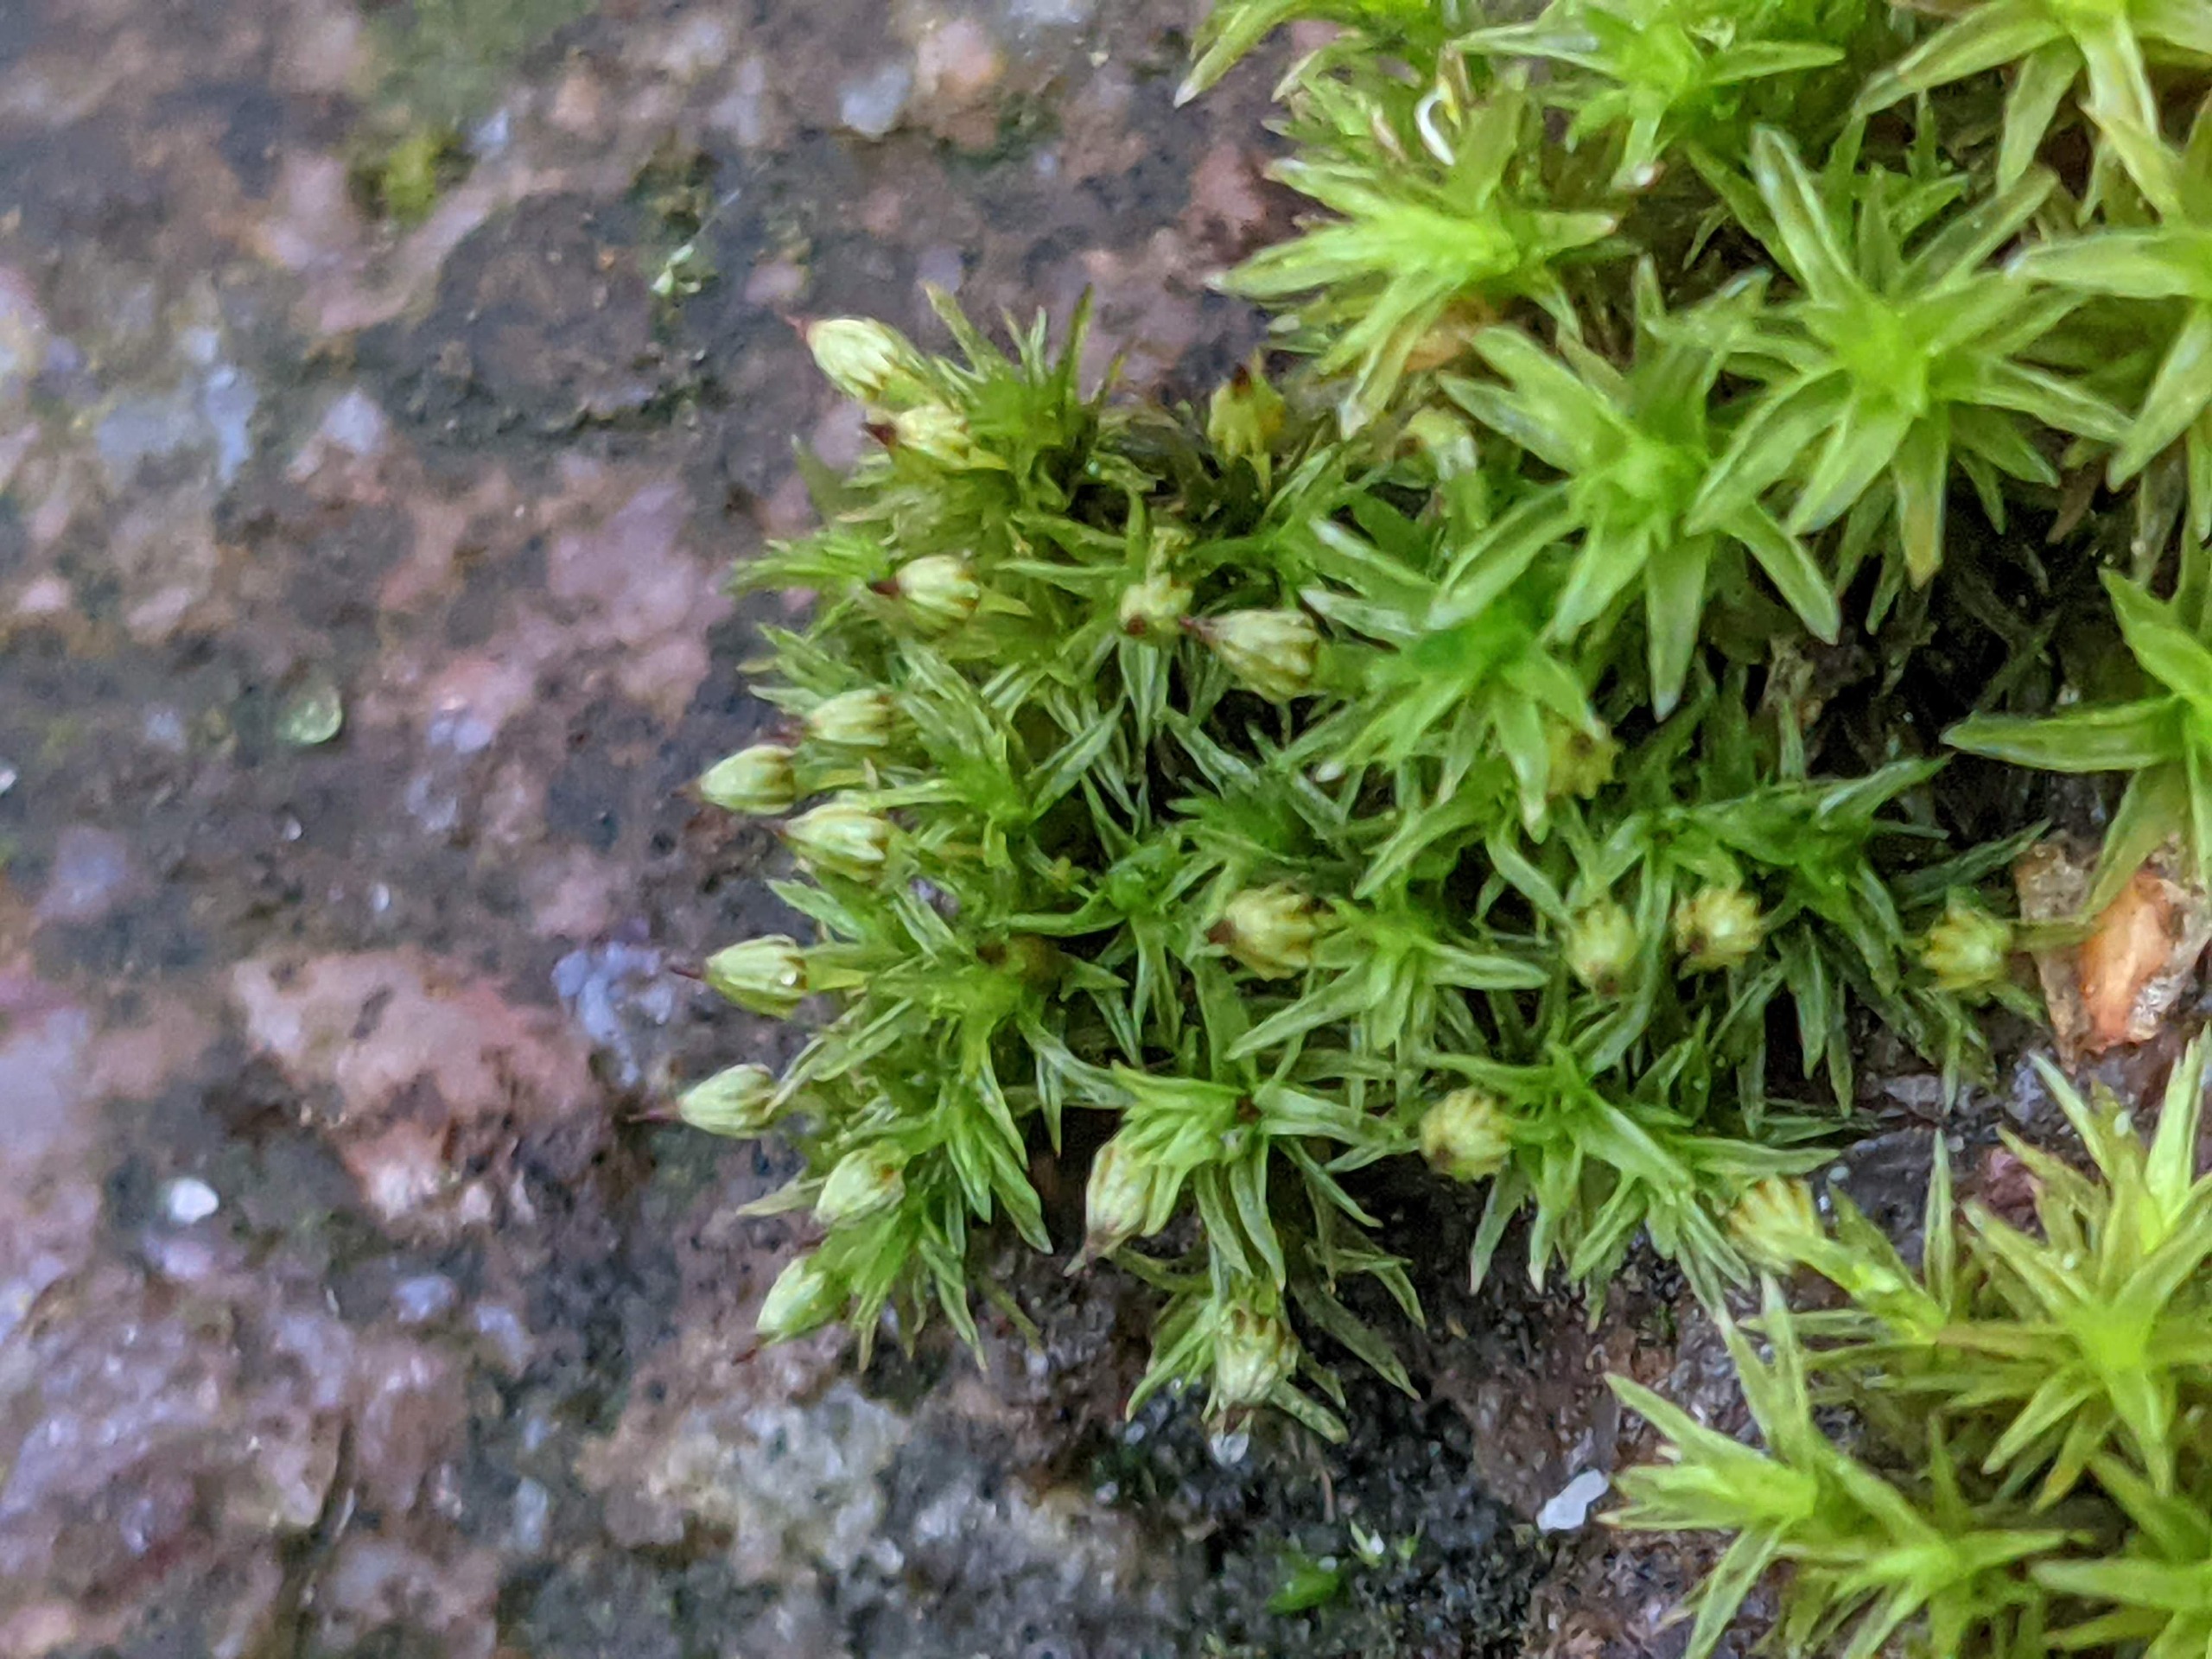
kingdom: Plantae
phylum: Bryophyta
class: Bryopsida
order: Orthotrichales
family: Orthotrichaceae
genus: Orthotrichum
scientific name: Orthotrichum pulchellum
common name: Smuk furehætte
